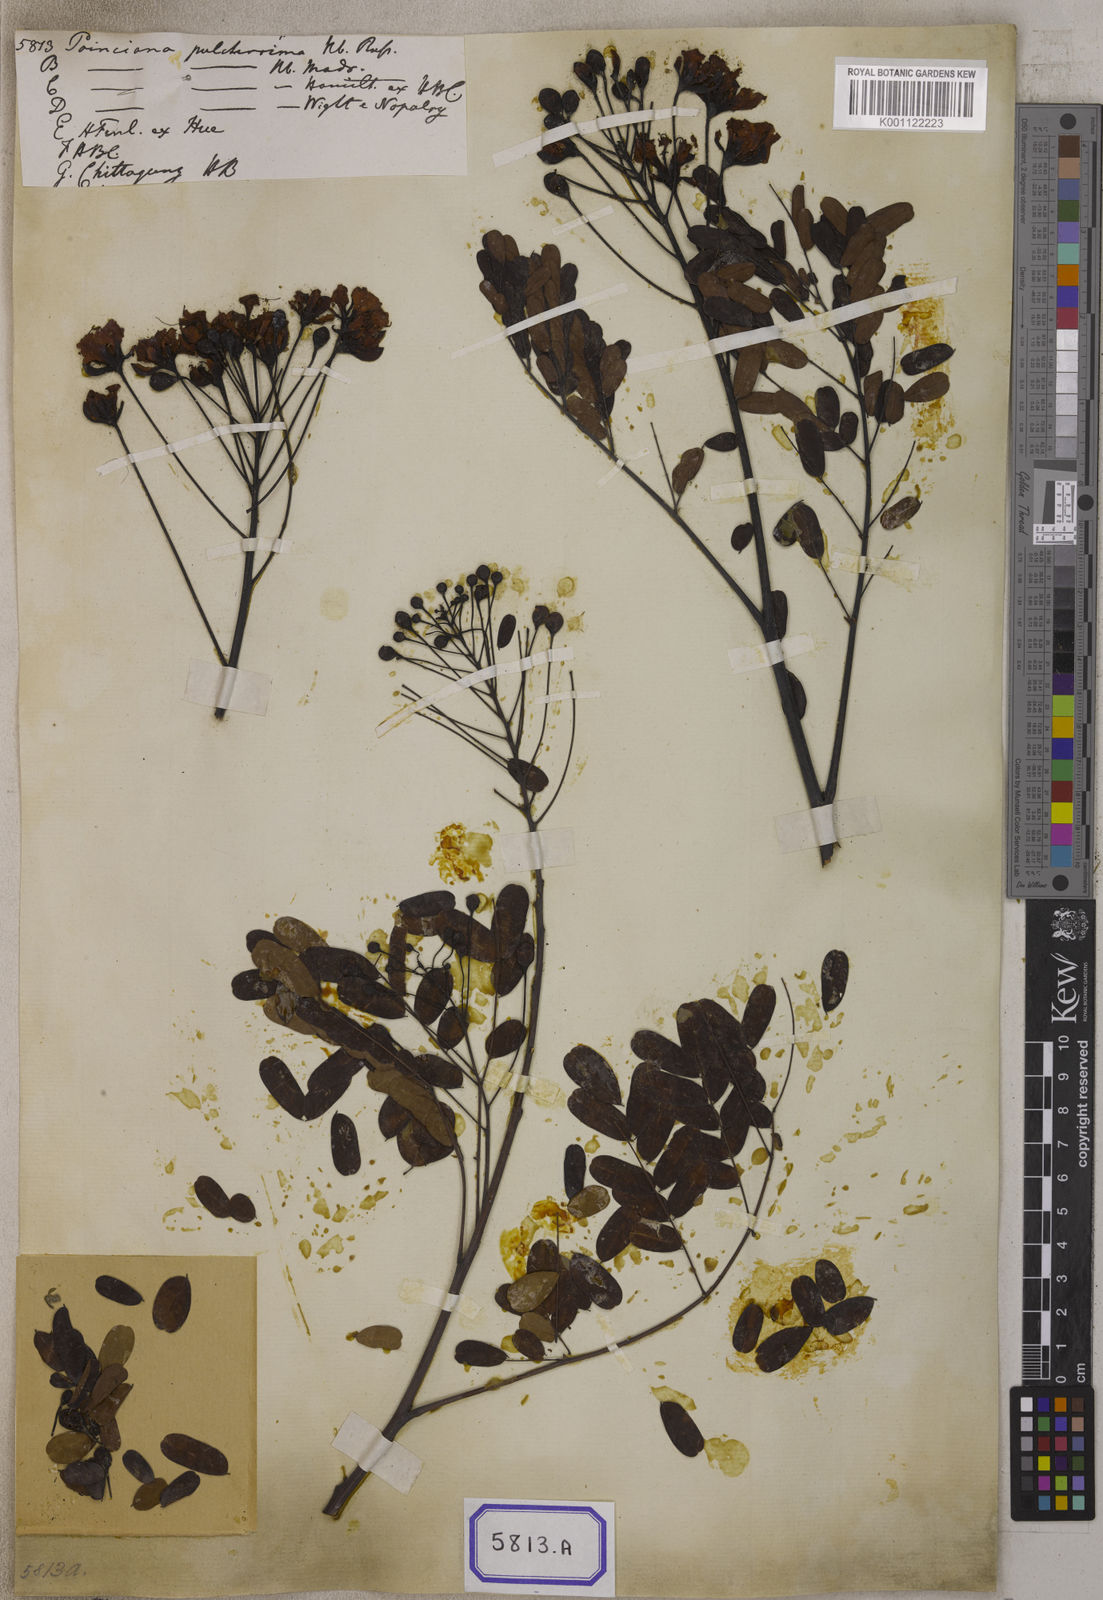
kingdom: Plantae
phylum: Tracheophyta
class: Magnoliopsida
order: Fabales
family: Fabaceae
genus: Caesalpinia
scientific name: Caesalpinia pulcherrima
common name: Pride-of-barbados
